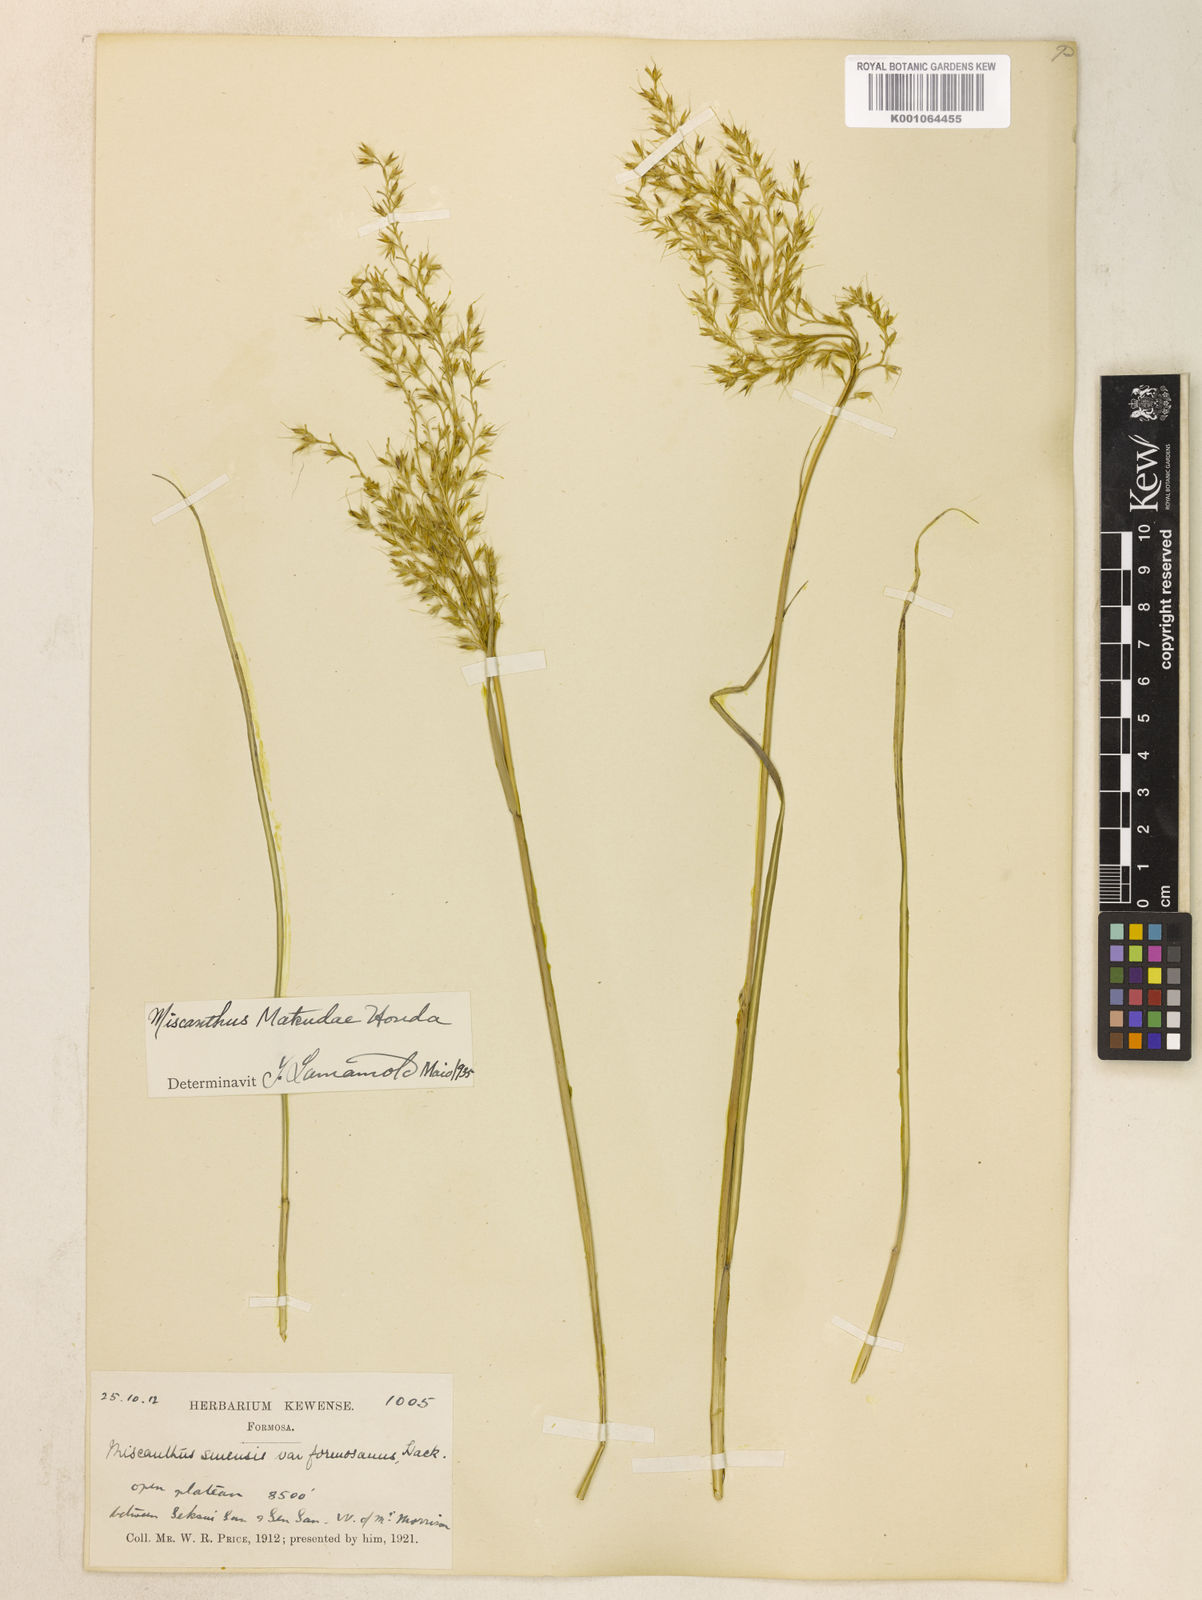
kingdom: Plantae
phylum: Tracheophyta
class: Liliopsida
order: Poales
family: Poaceae
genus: Miscanthus
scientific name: Miscanthus sinensis
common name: Chinese silvergrass
